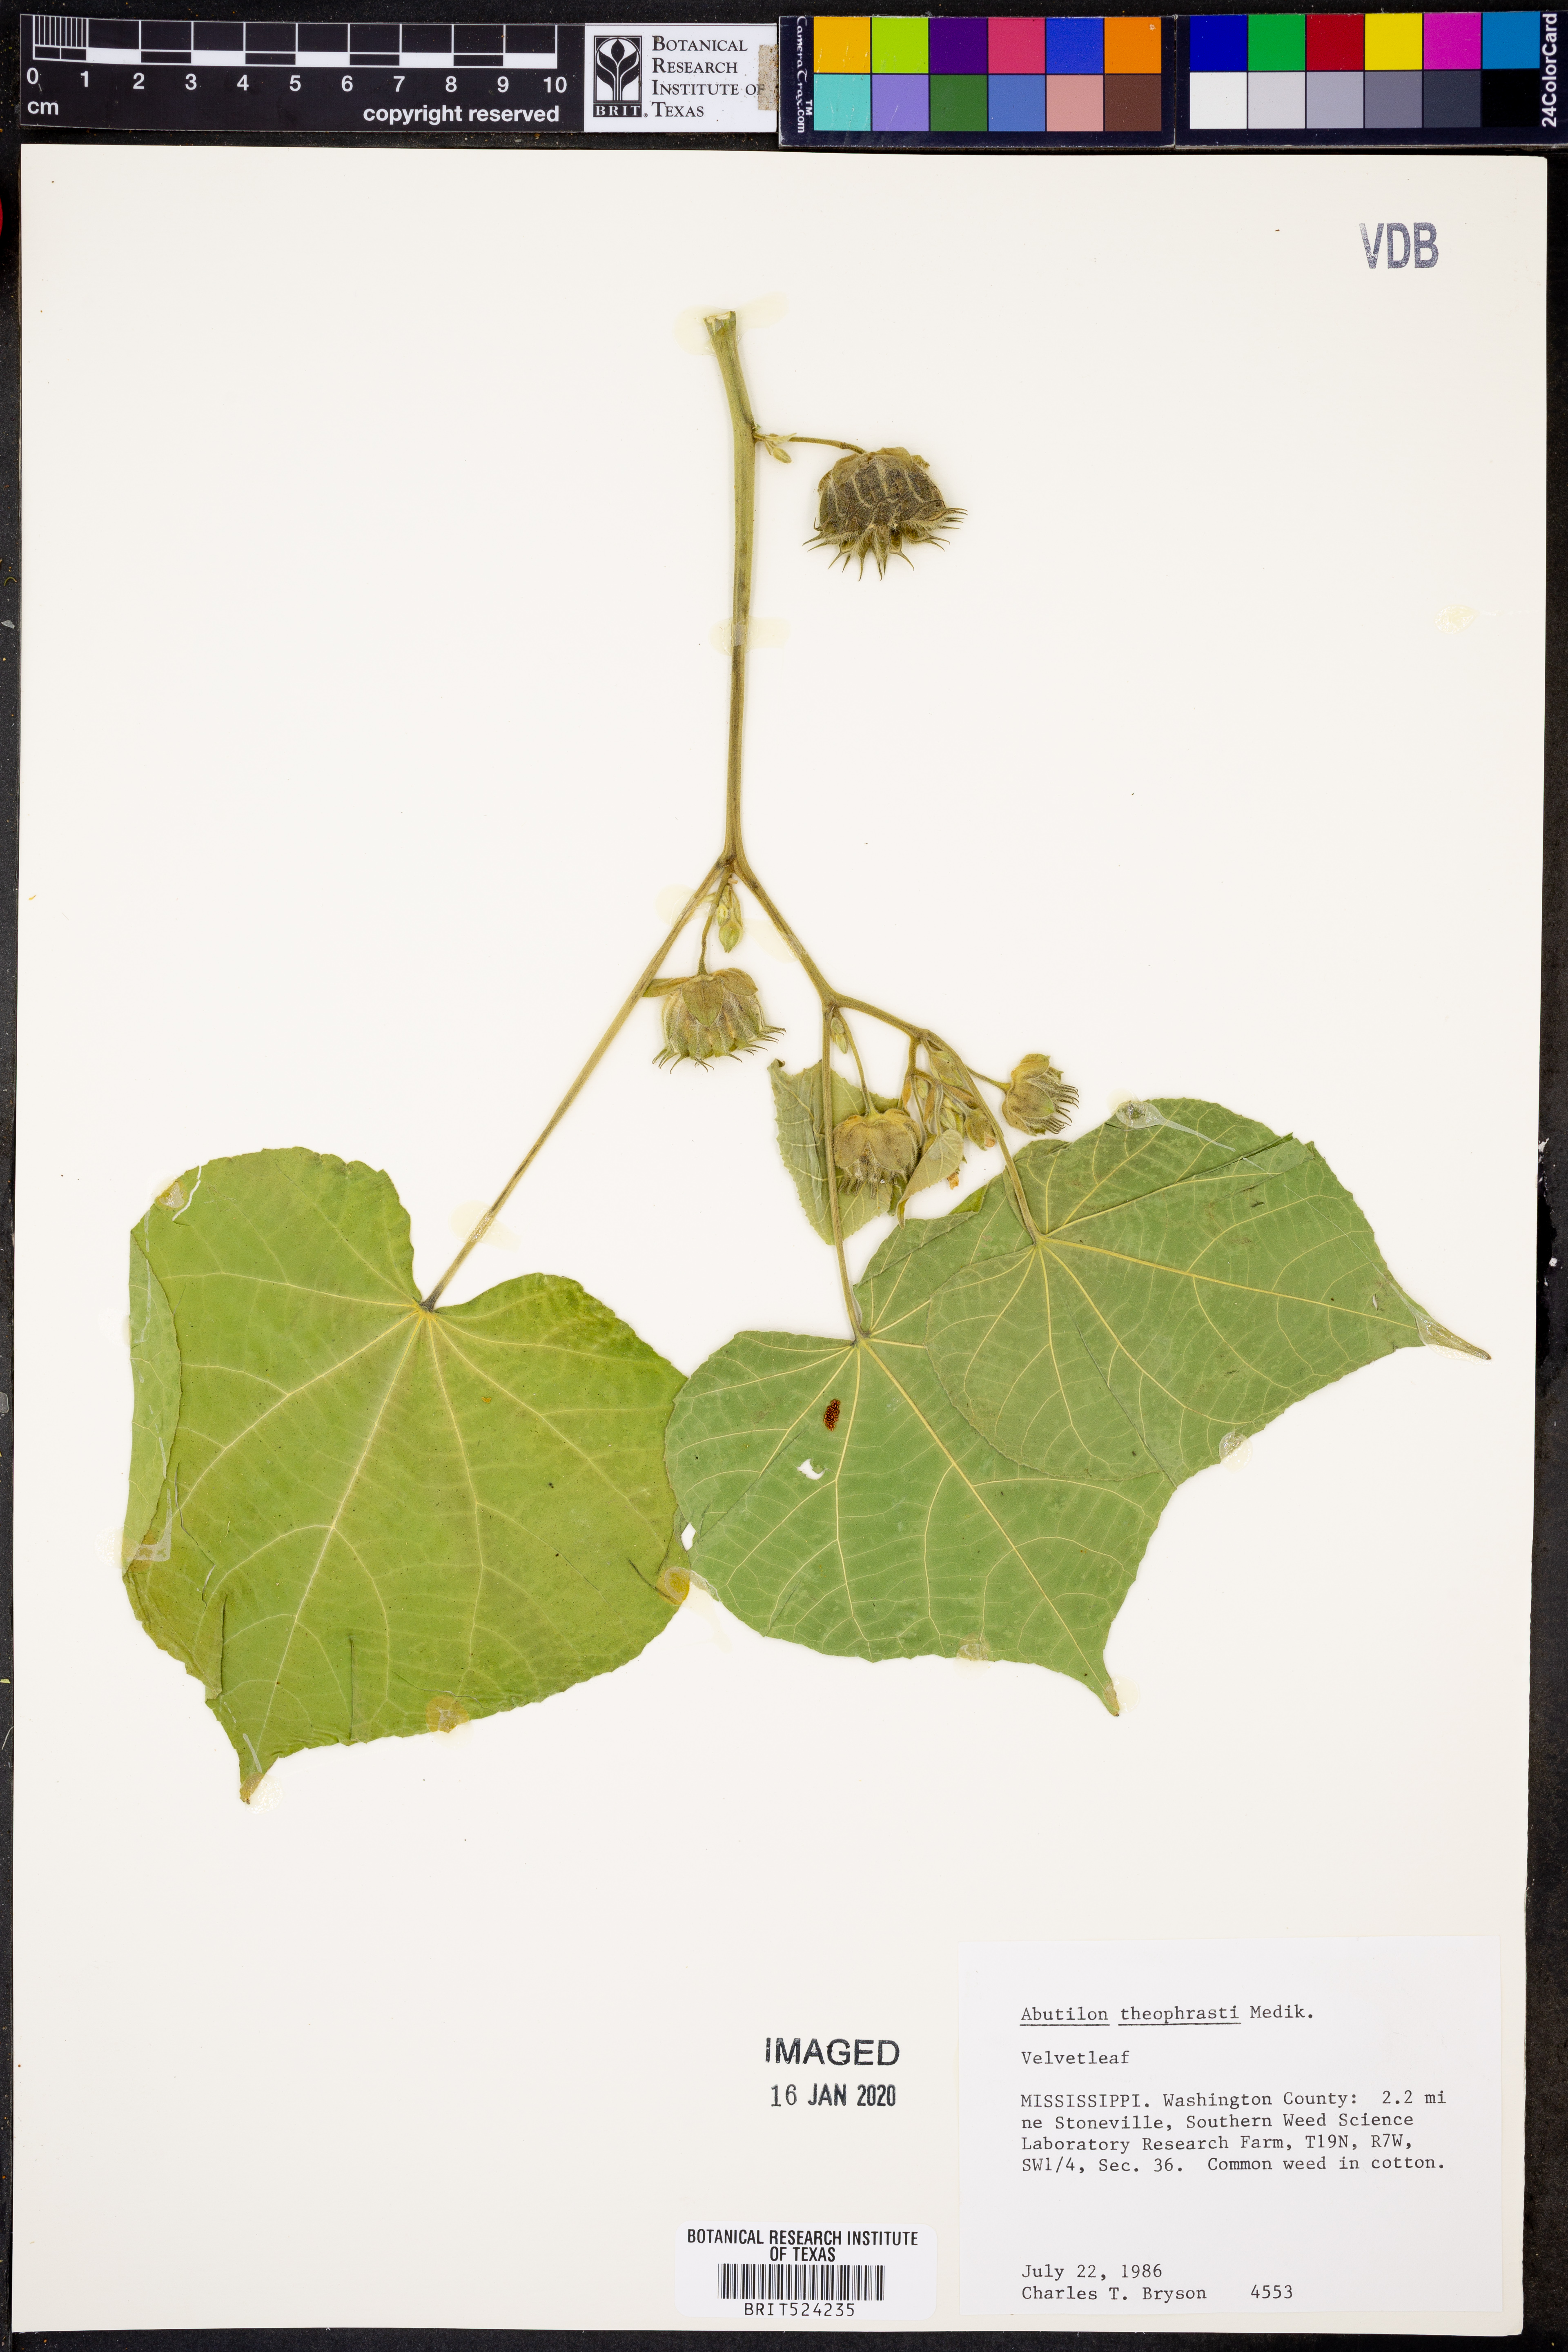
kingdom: Plantae
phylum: Tracheophyta
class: Magnoliopsida
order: Malvales
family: Malvaceae
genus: Abutilon
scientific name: Abutilon theophrasti
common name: Velvetleaf
